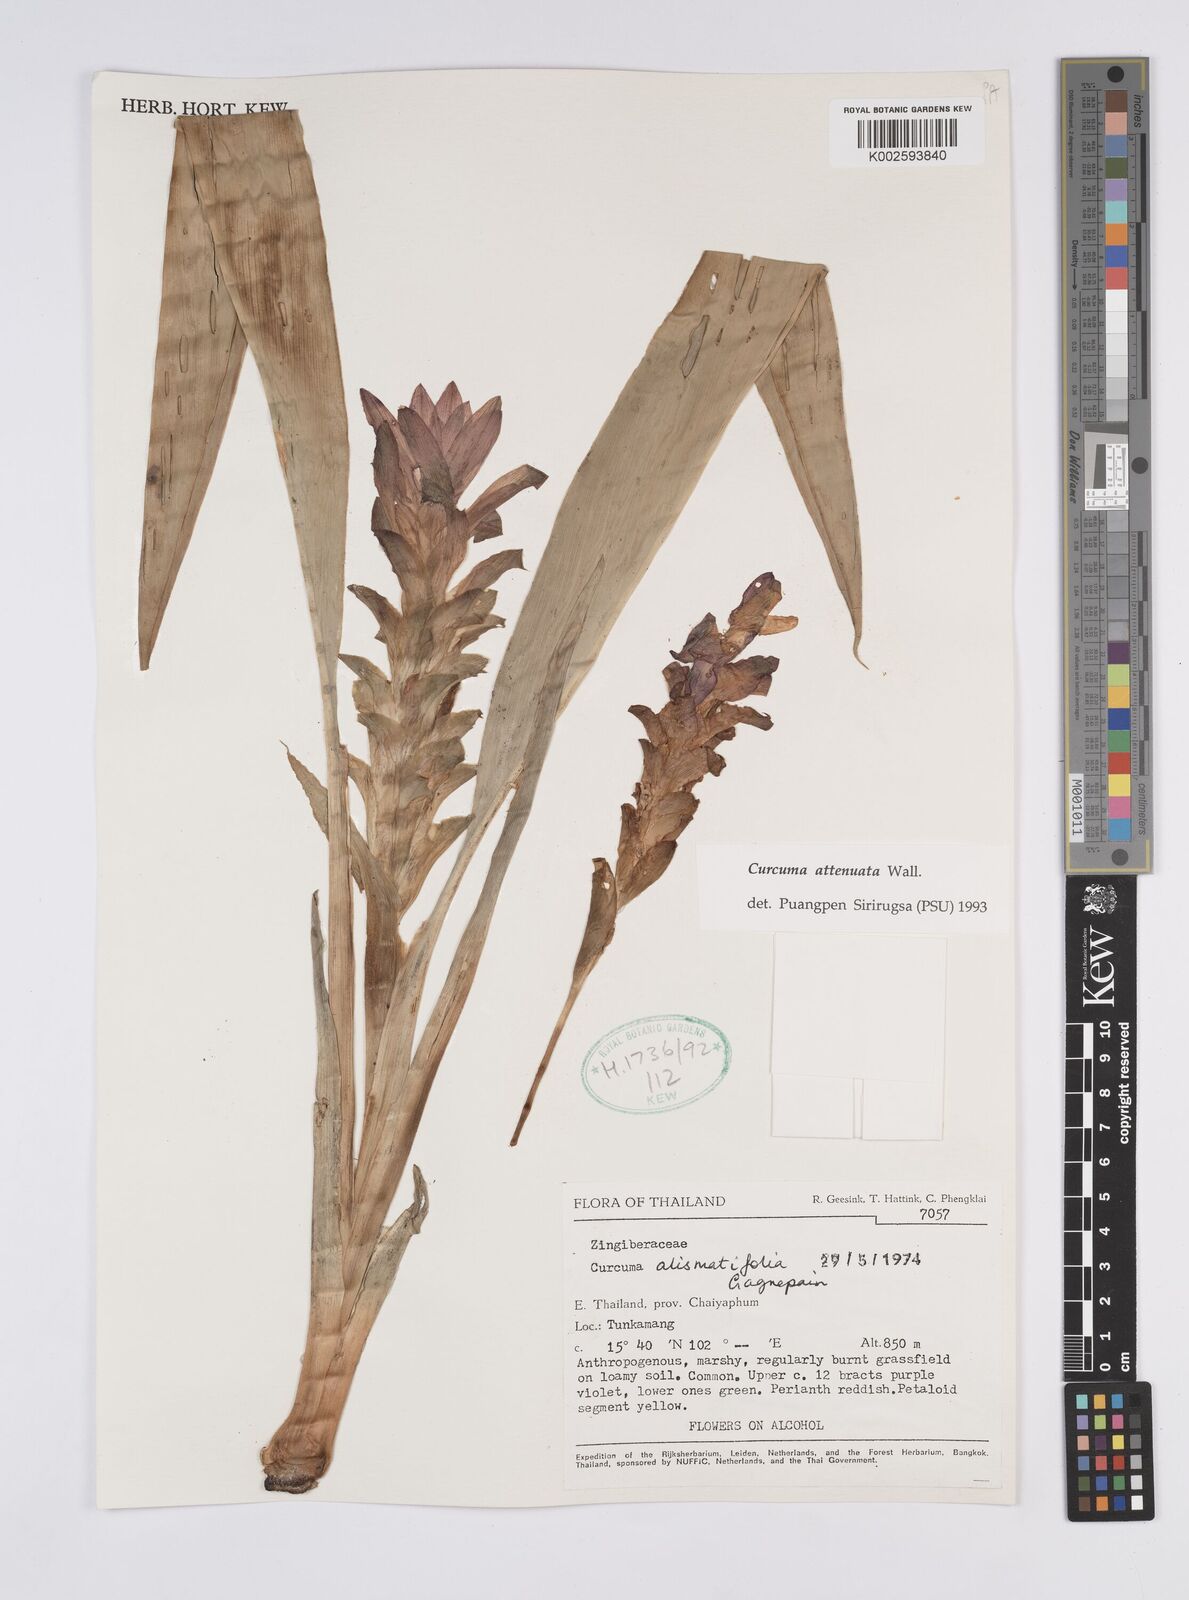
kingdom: Plantae
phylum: Tracheophyta
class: Liliopsida
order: Zingiberales
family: Zingiberaceae
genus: Curcuma
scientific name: Curcuma attenuata
